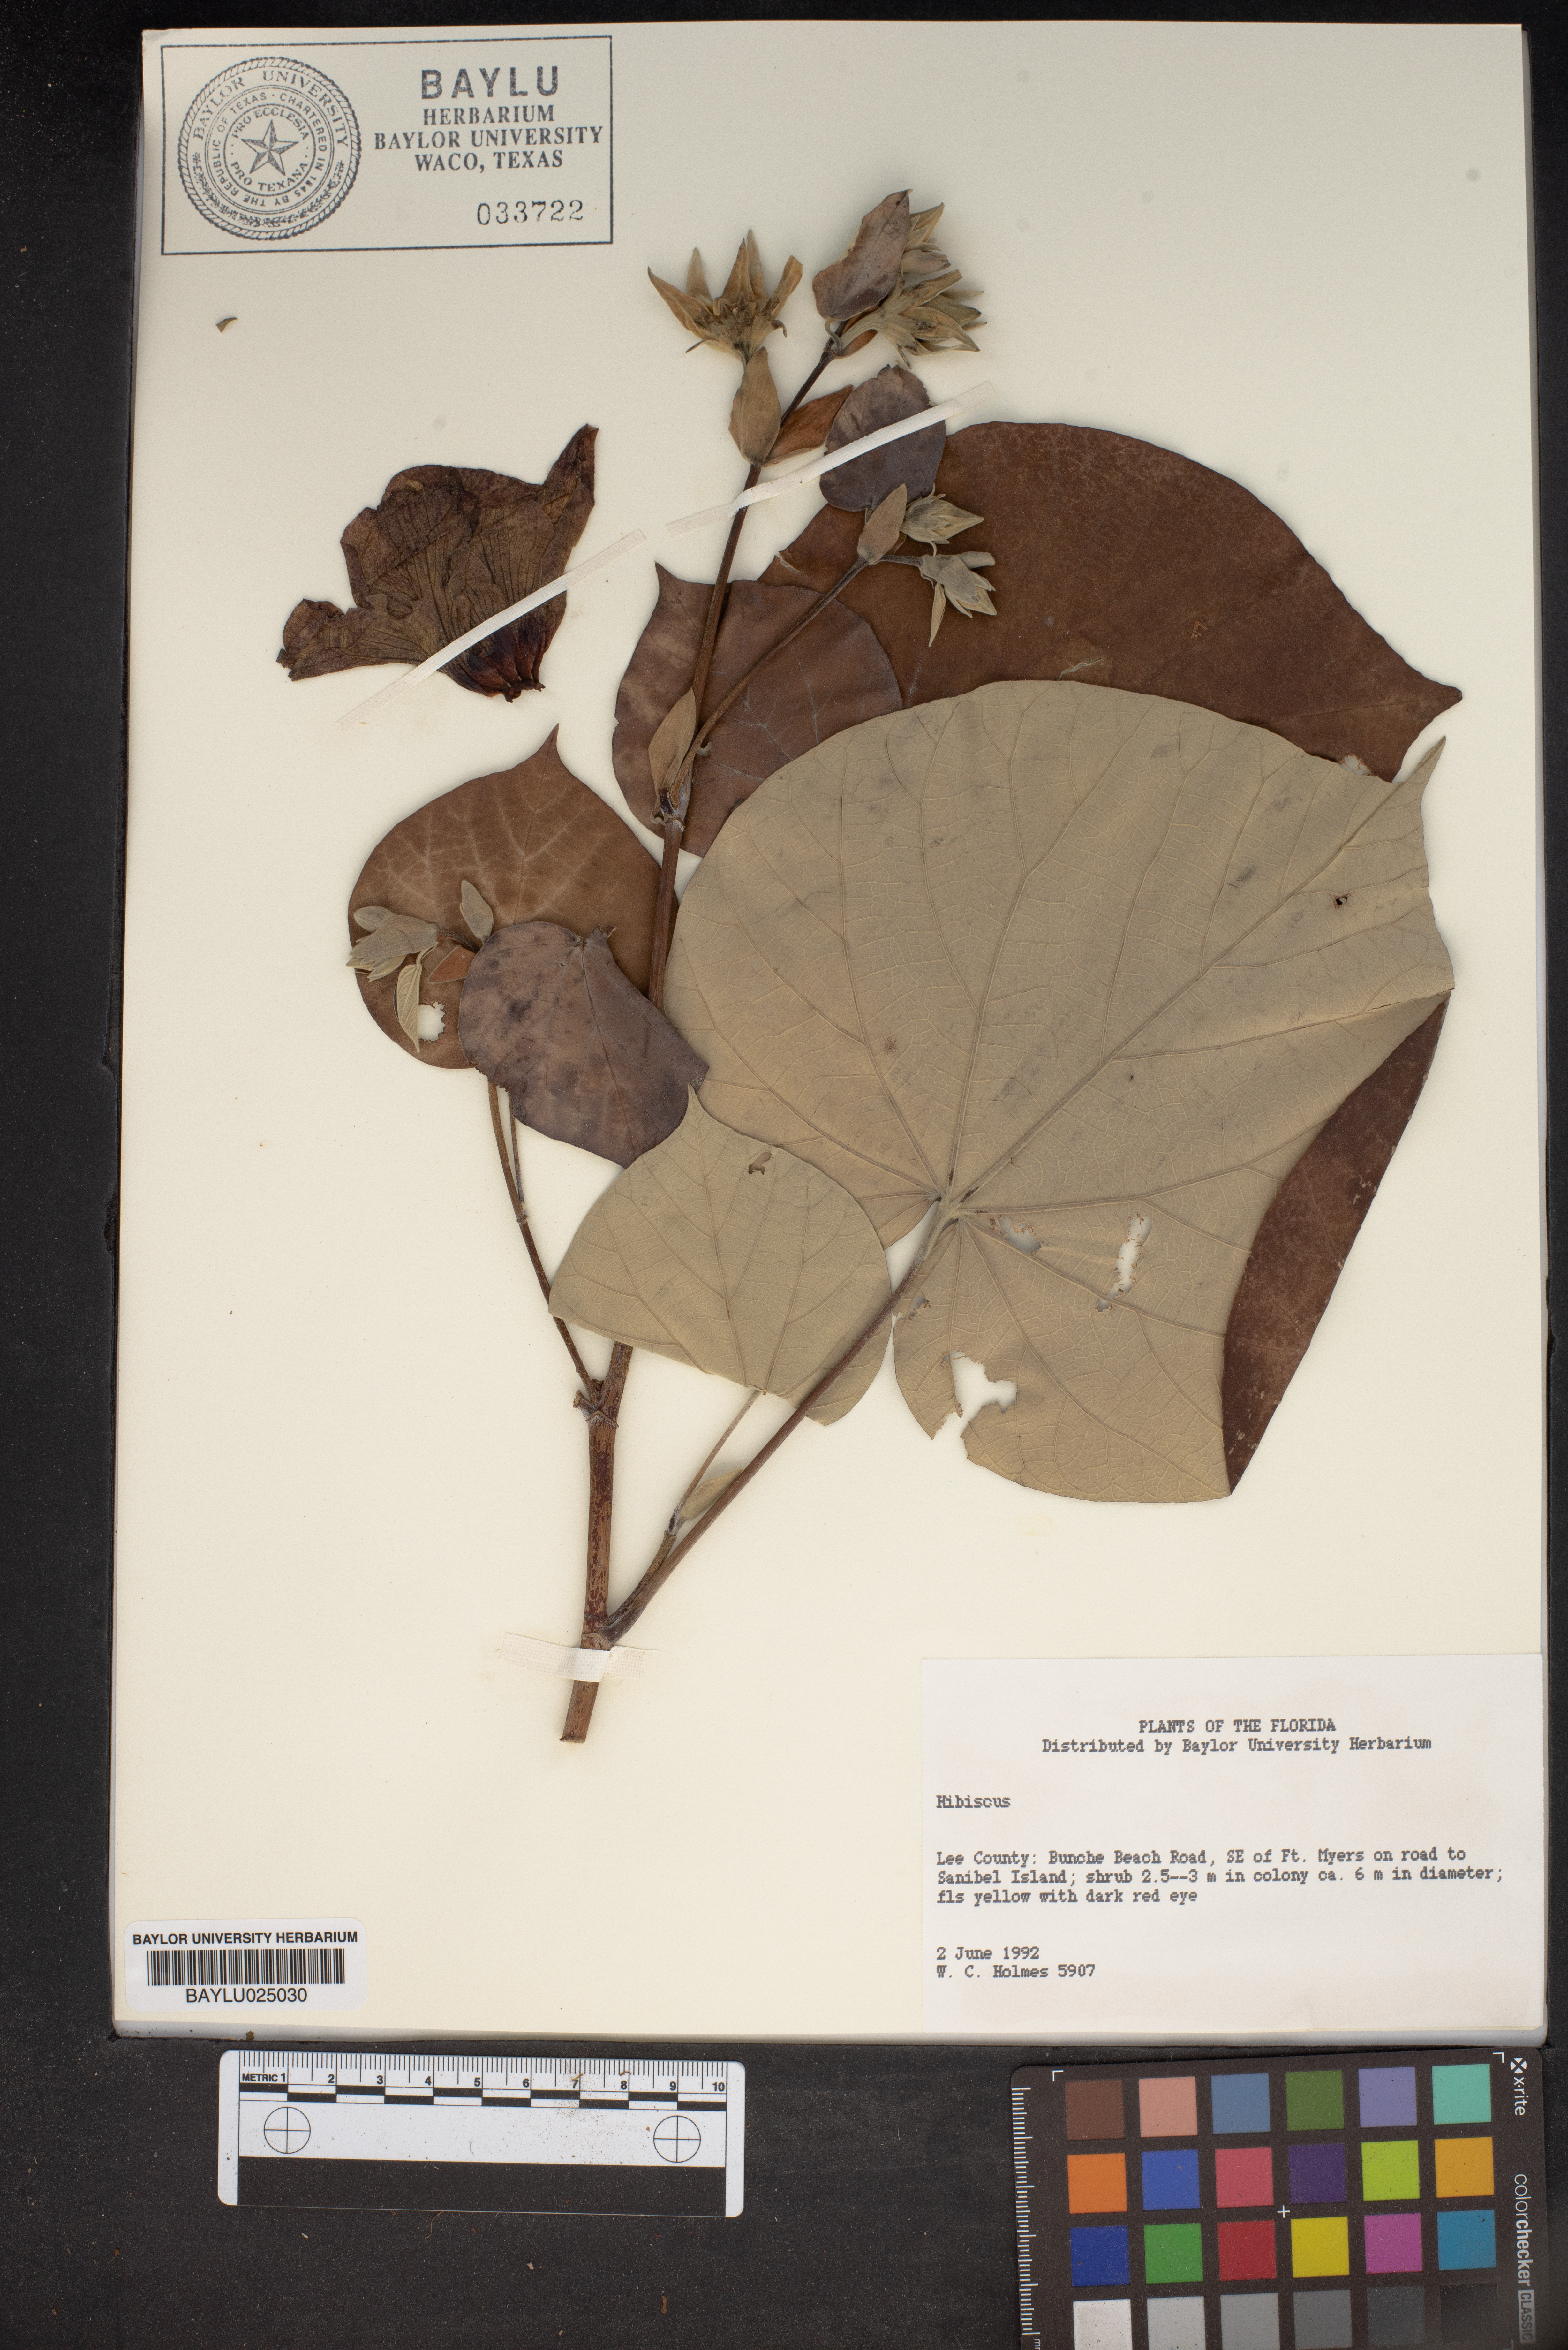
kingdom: Plantae
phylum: Tracheophyta
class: Magnoliopsida
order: Malvales
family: Malvaceae
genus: Hibiscus
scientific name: Hibiscus
